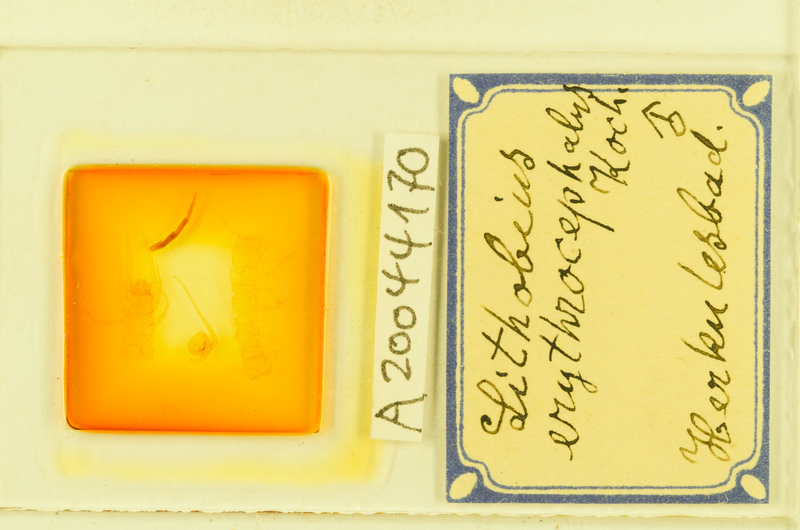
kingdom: Animalia
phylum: Arthropoda
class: Chilopoda
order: Lithobiomorpha
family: Lithobiidae
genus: Lithobius
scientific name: Lithobius erythrocephalus
